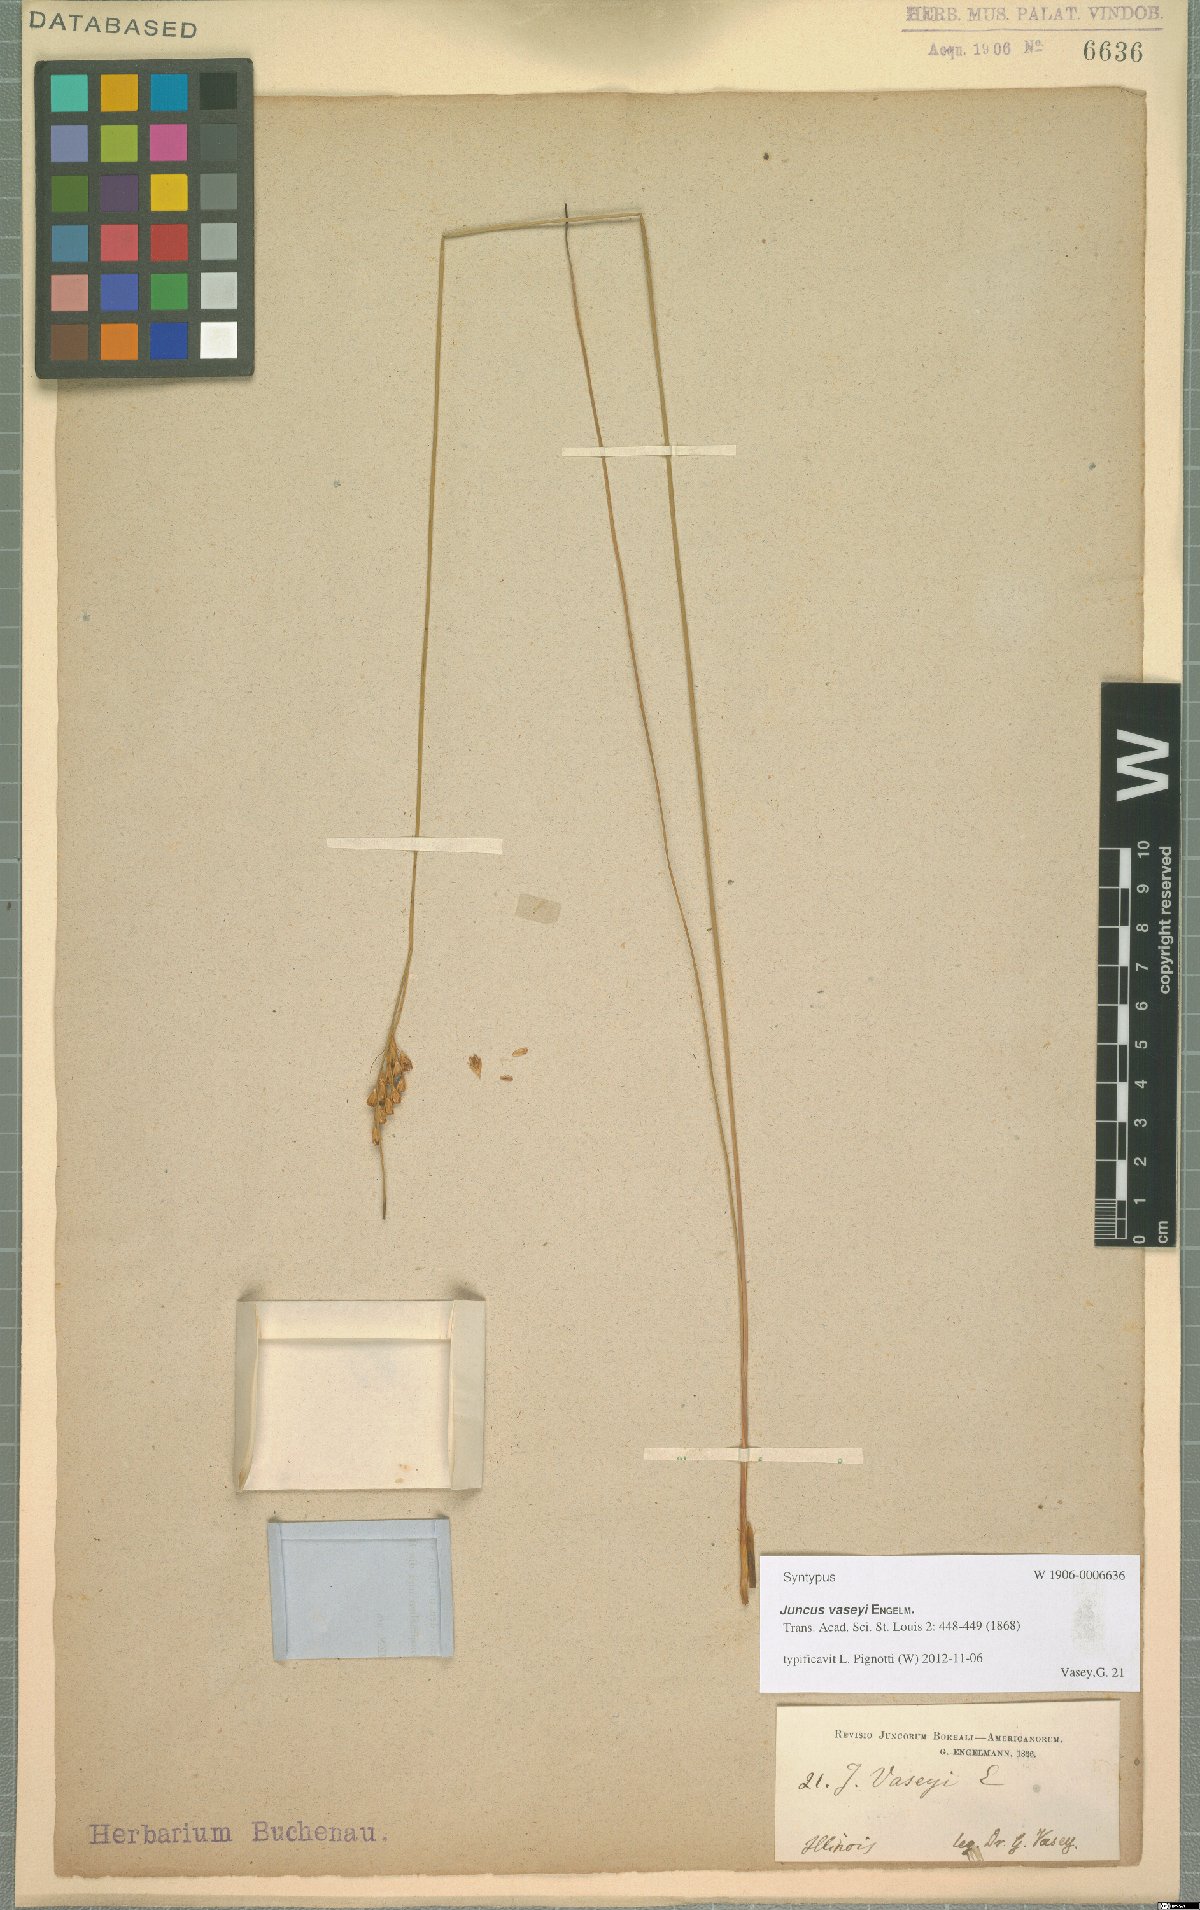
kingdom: Plantae
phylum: Tracheophyta
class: Liliopsida
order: Poales
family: Juncaceae
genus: Juncus
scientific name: Juncus vaseyi
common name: Big-headed rush
